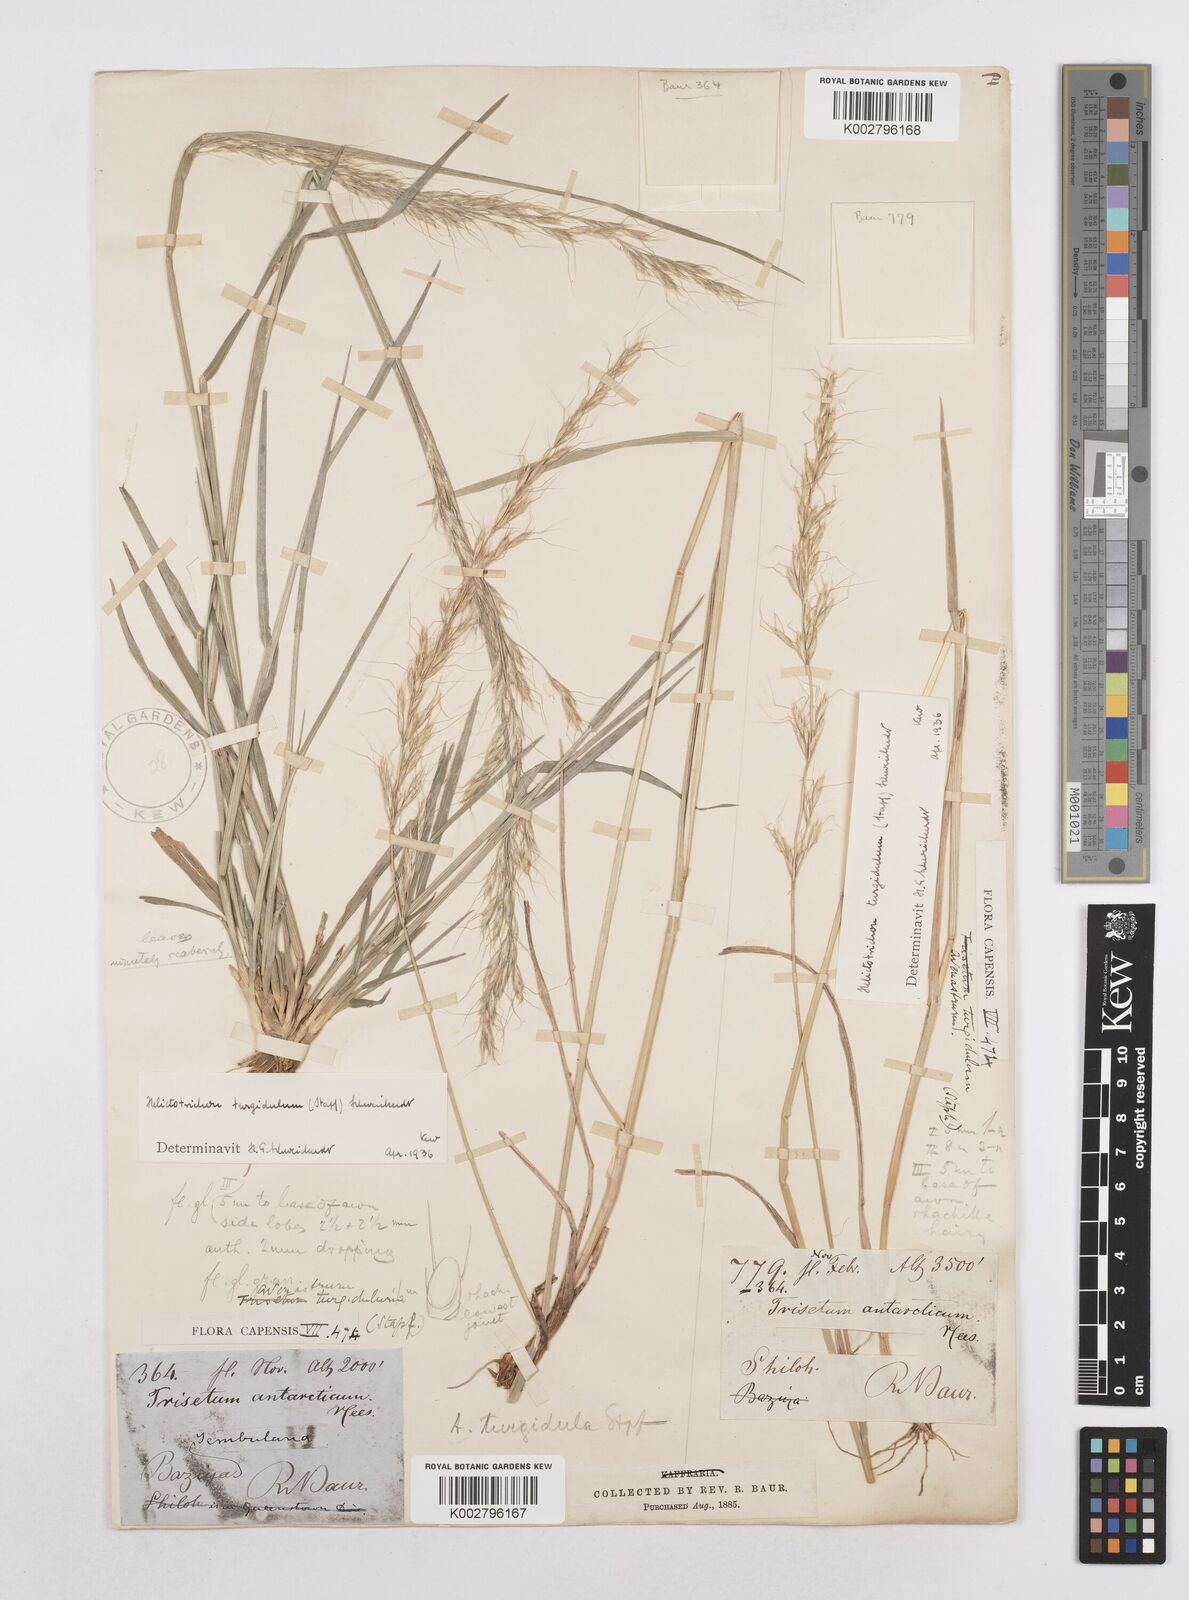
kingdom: Plantae
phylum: Tracheophyta
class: Liliopsida
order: Poales
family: Poaceae
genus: Trisetopsis
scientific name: Trisetopsis imberbis
